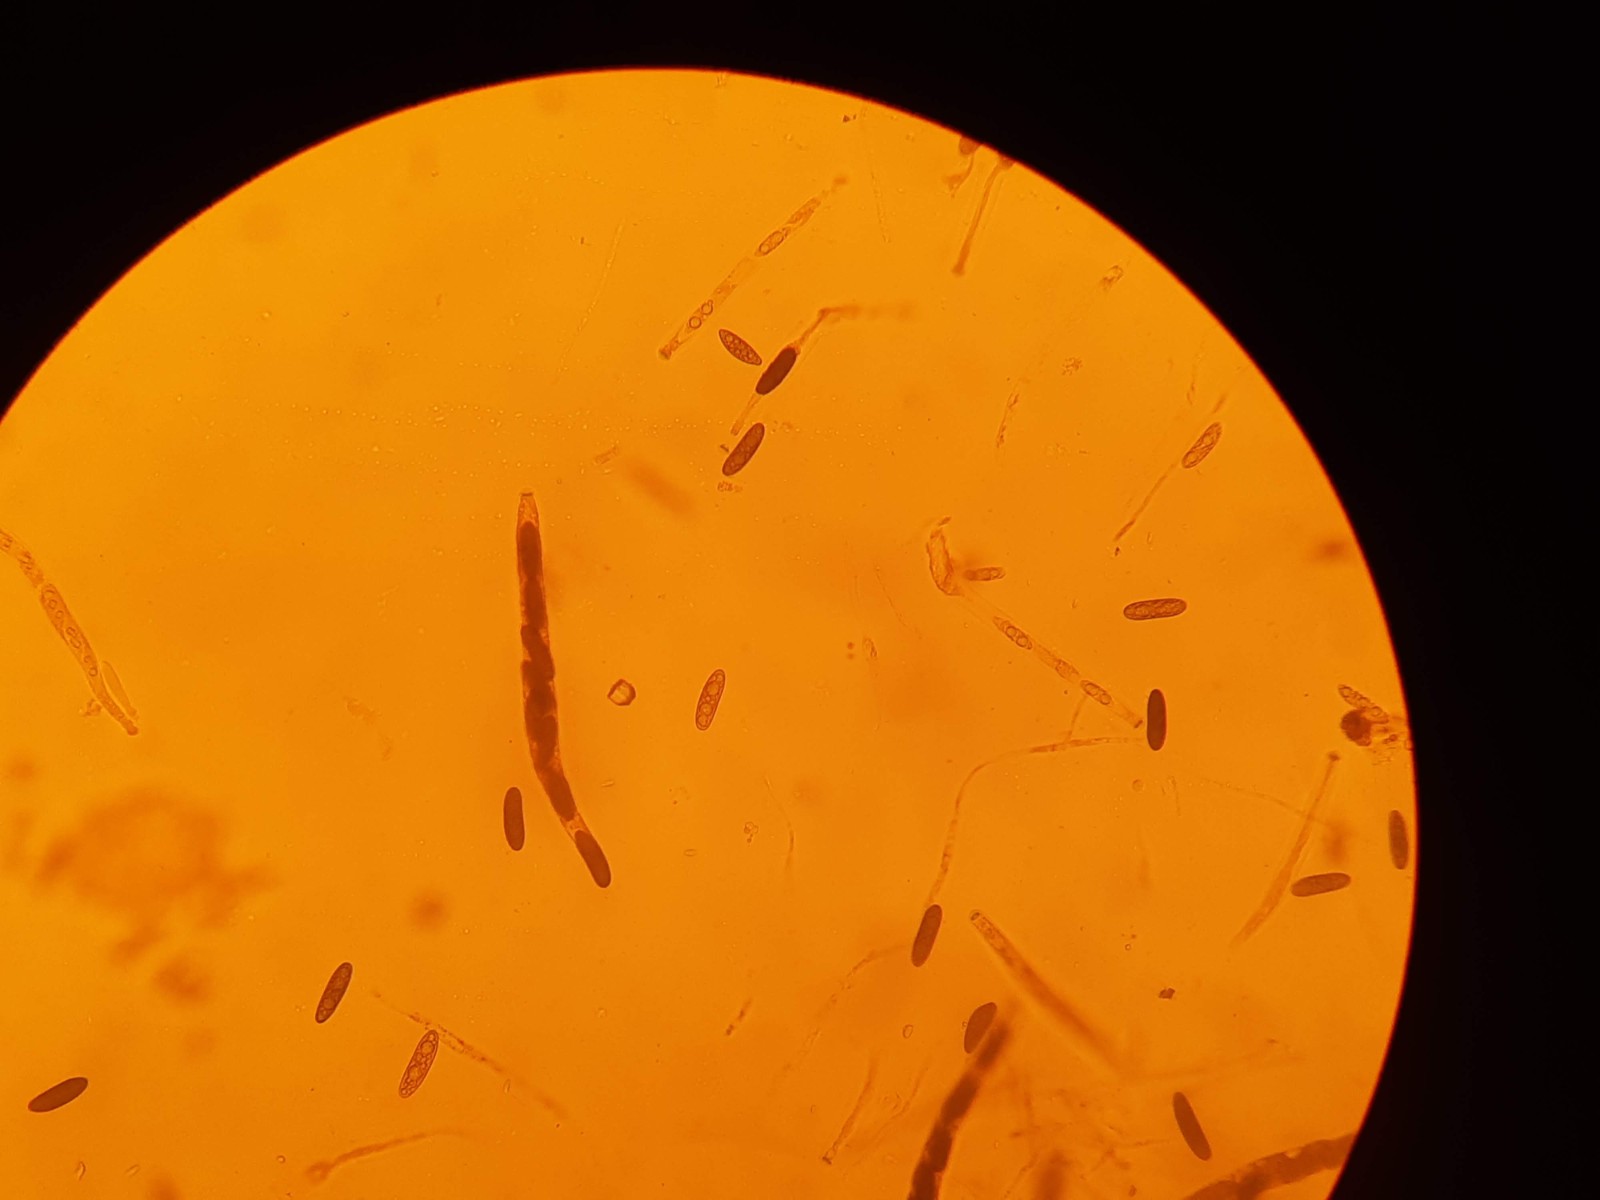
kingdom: Fungi
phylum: Ascomycota
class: Sordariomycetes
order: Xylariales
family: Xylariaceae
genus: Euepixylon
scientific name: Euepixylon udum
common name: ege-kuldyne
